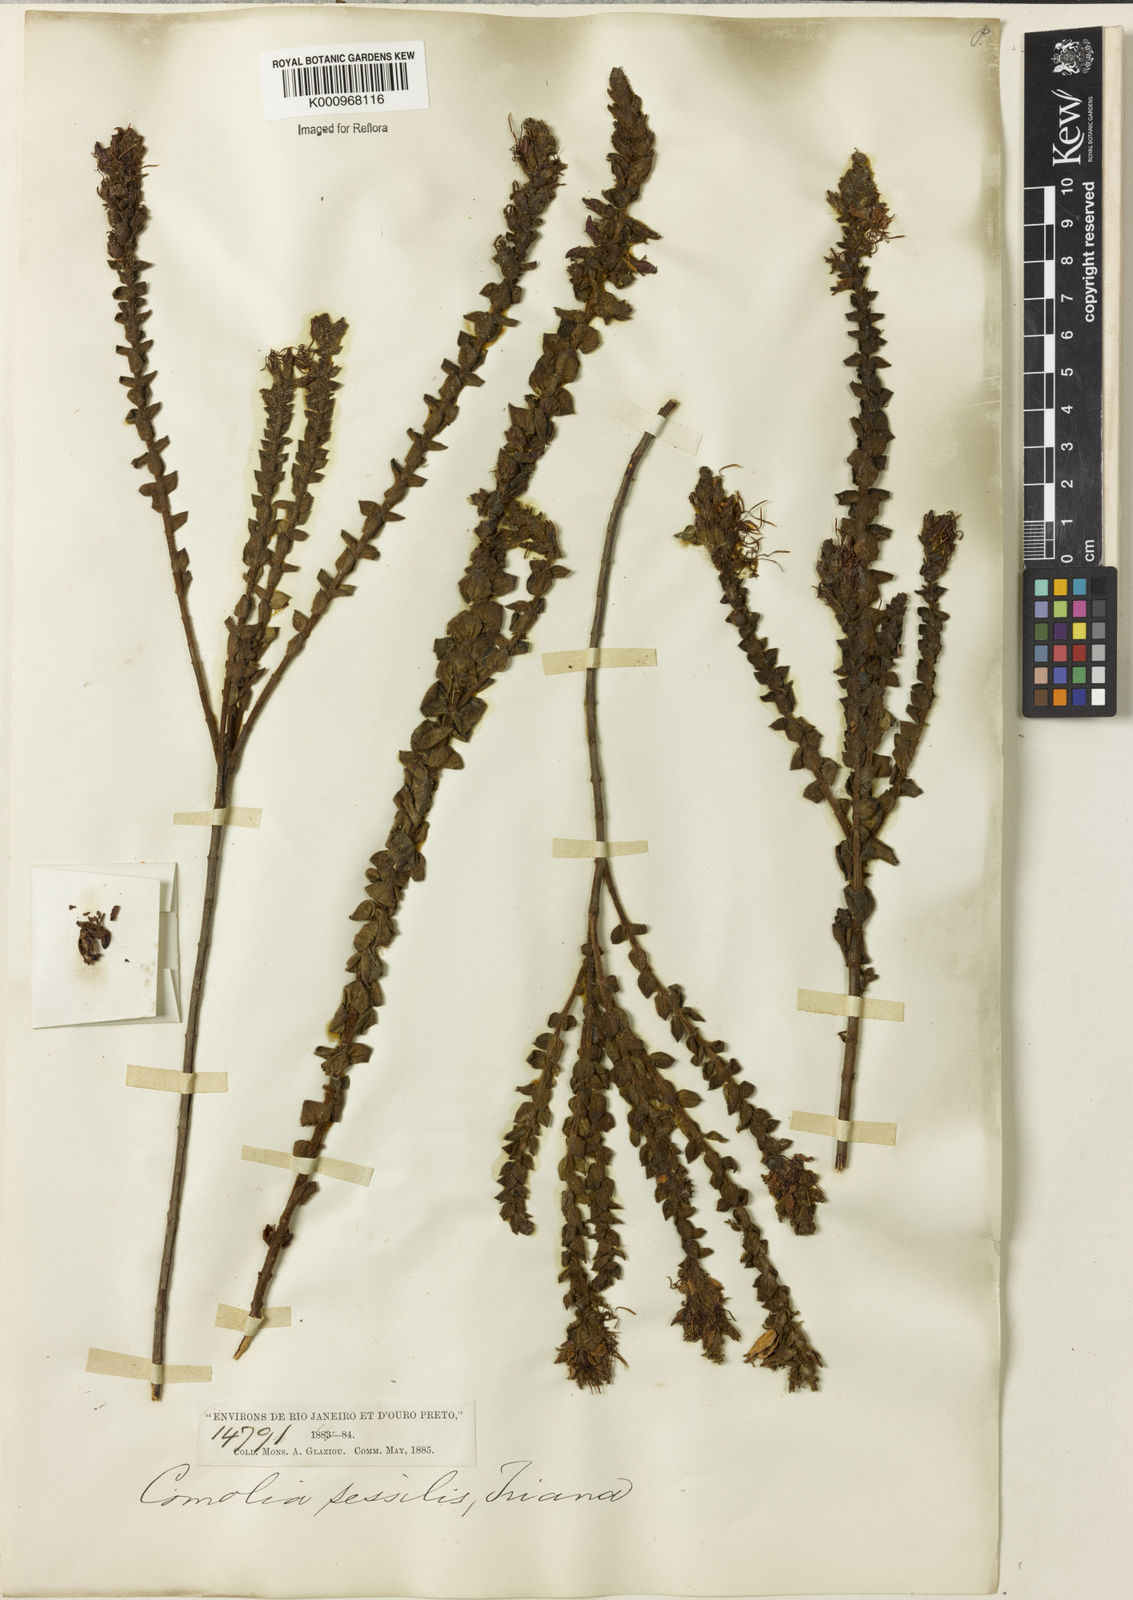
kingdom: Plantae
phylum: Tracheophyta
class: Magnoliopsida
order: Myrtales
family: Melastomataceae
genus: Fritzschia
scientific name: Fritzschia sessilis
